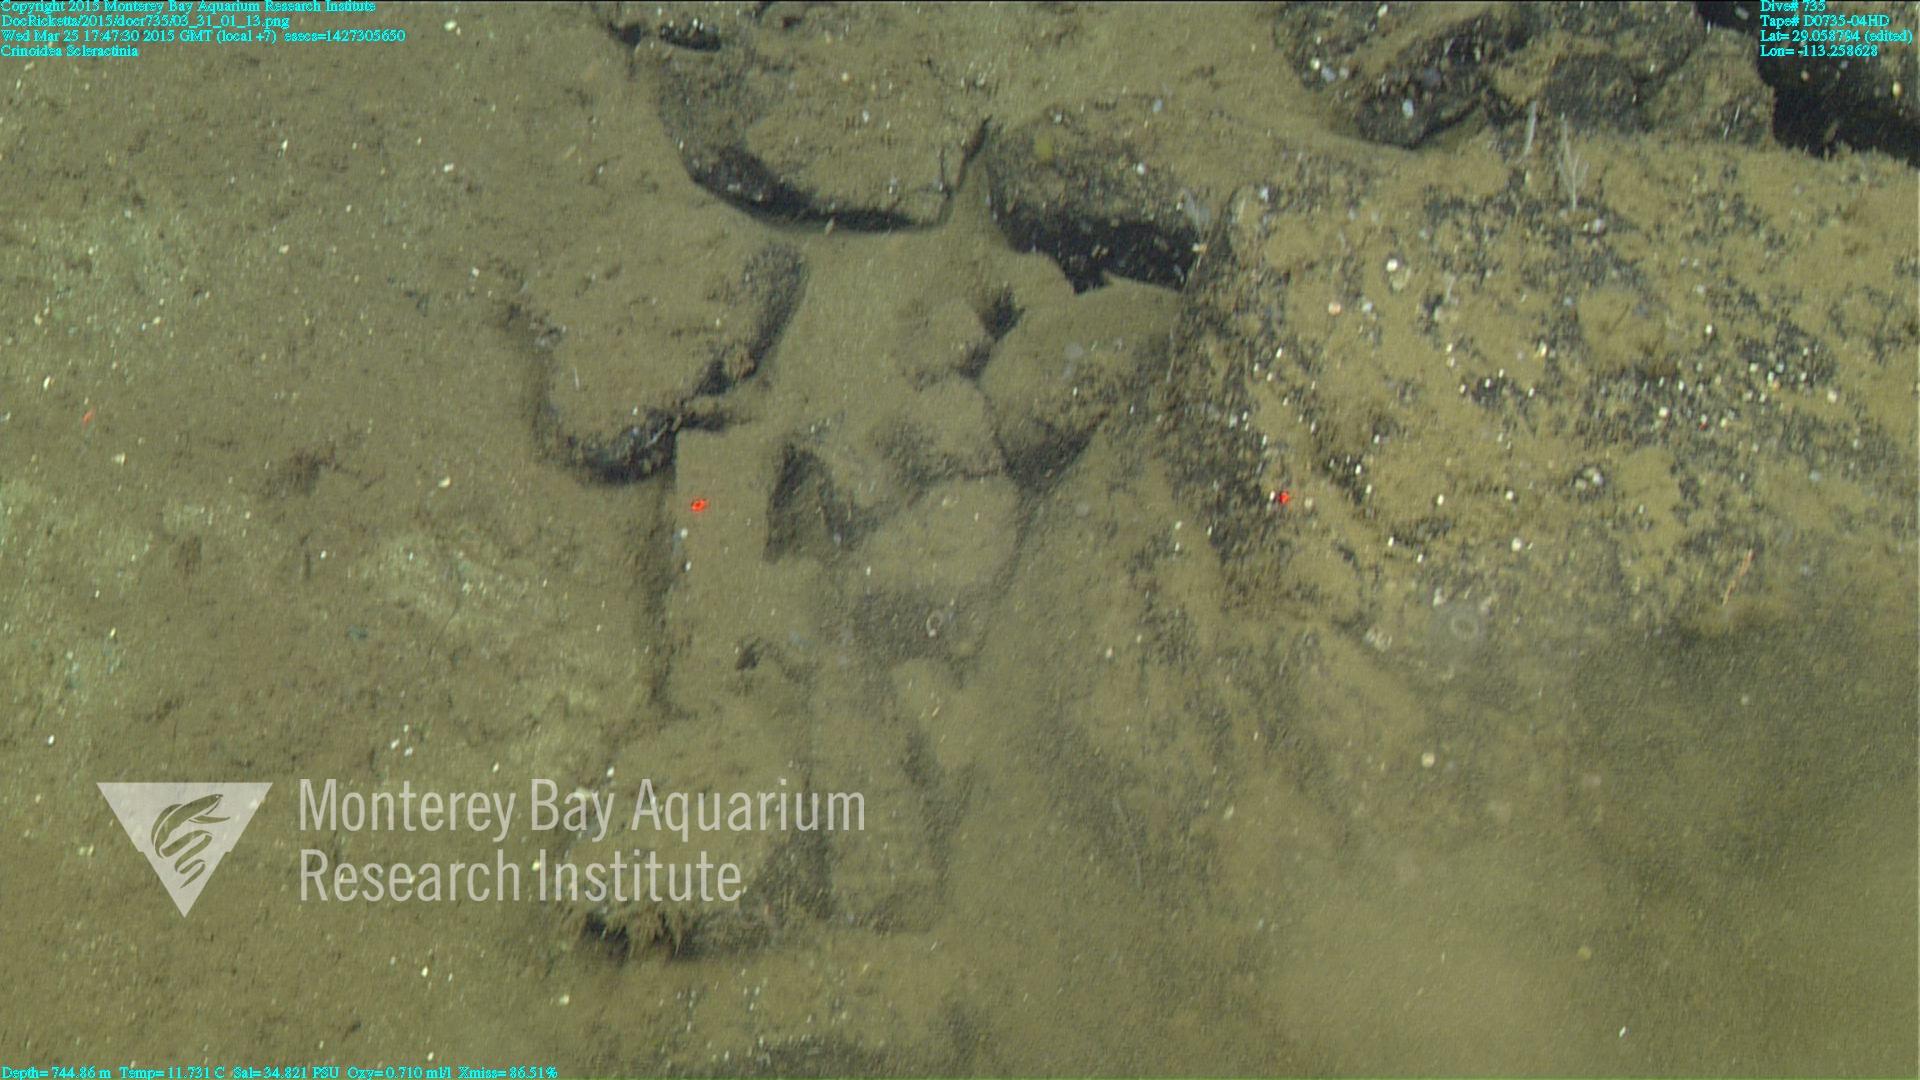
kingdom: Animalia
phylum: Cnidaria
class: Anthozoa
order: Scleractinia
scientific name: Scleractinia
